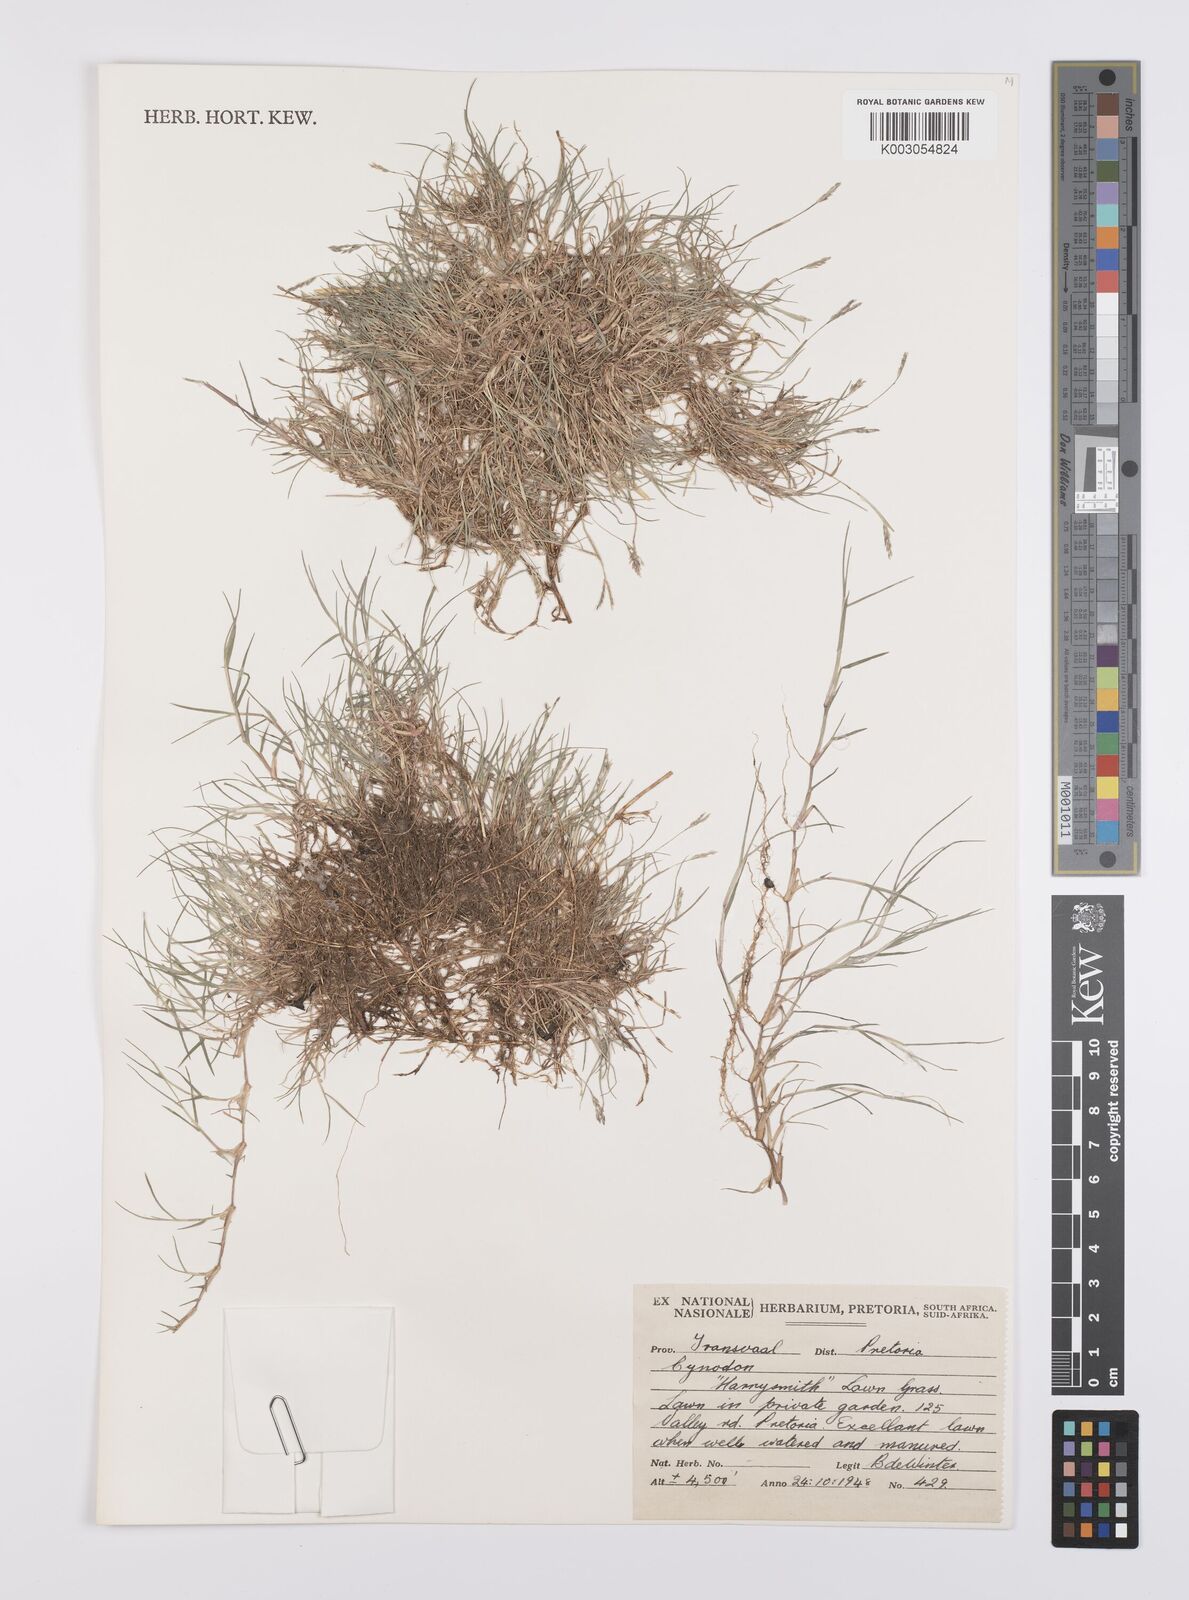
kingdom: Plantae
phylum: Tracheophyta
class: Liliopsida
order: Poales
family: Poaceae
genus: Cynodon
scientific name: Cynodon dactylon
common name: Bermuda grass
